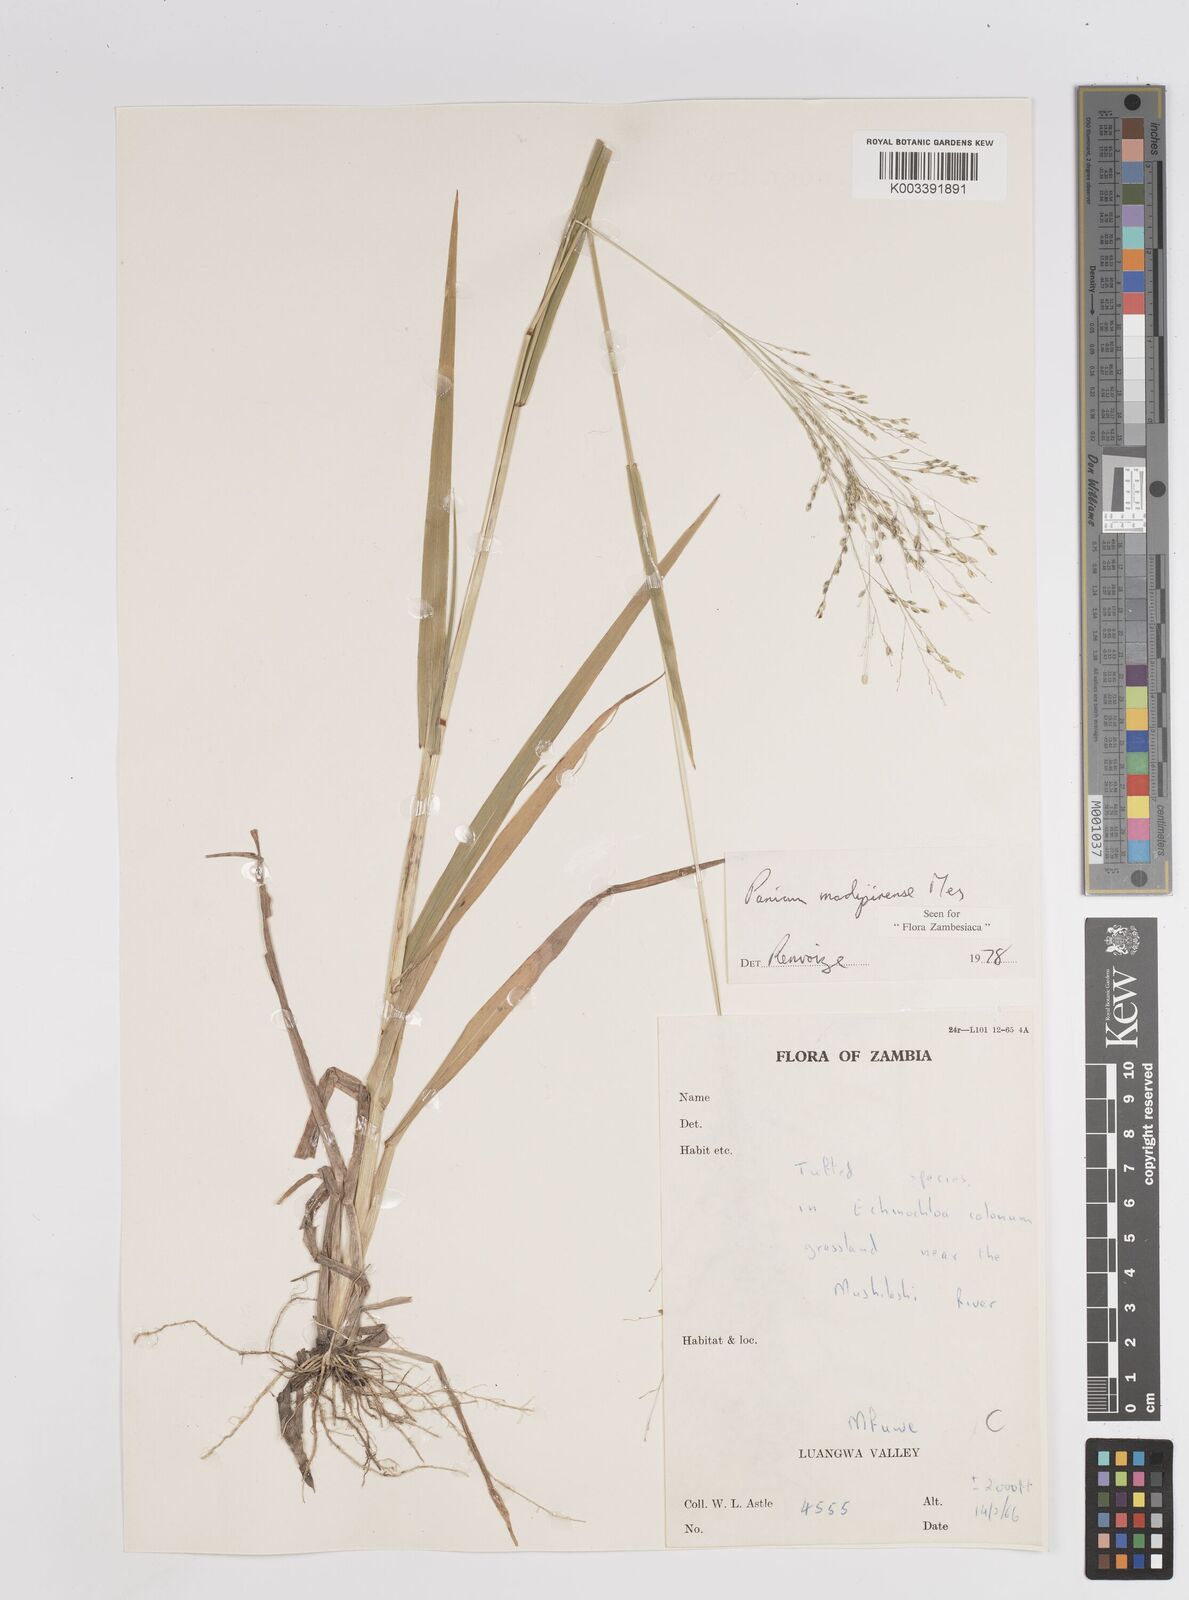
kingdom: Plantae
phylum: Tracheophyta
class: Liliopsida
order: Poales
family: Poaceae
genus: Panicum
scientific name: Panicum madipirense
